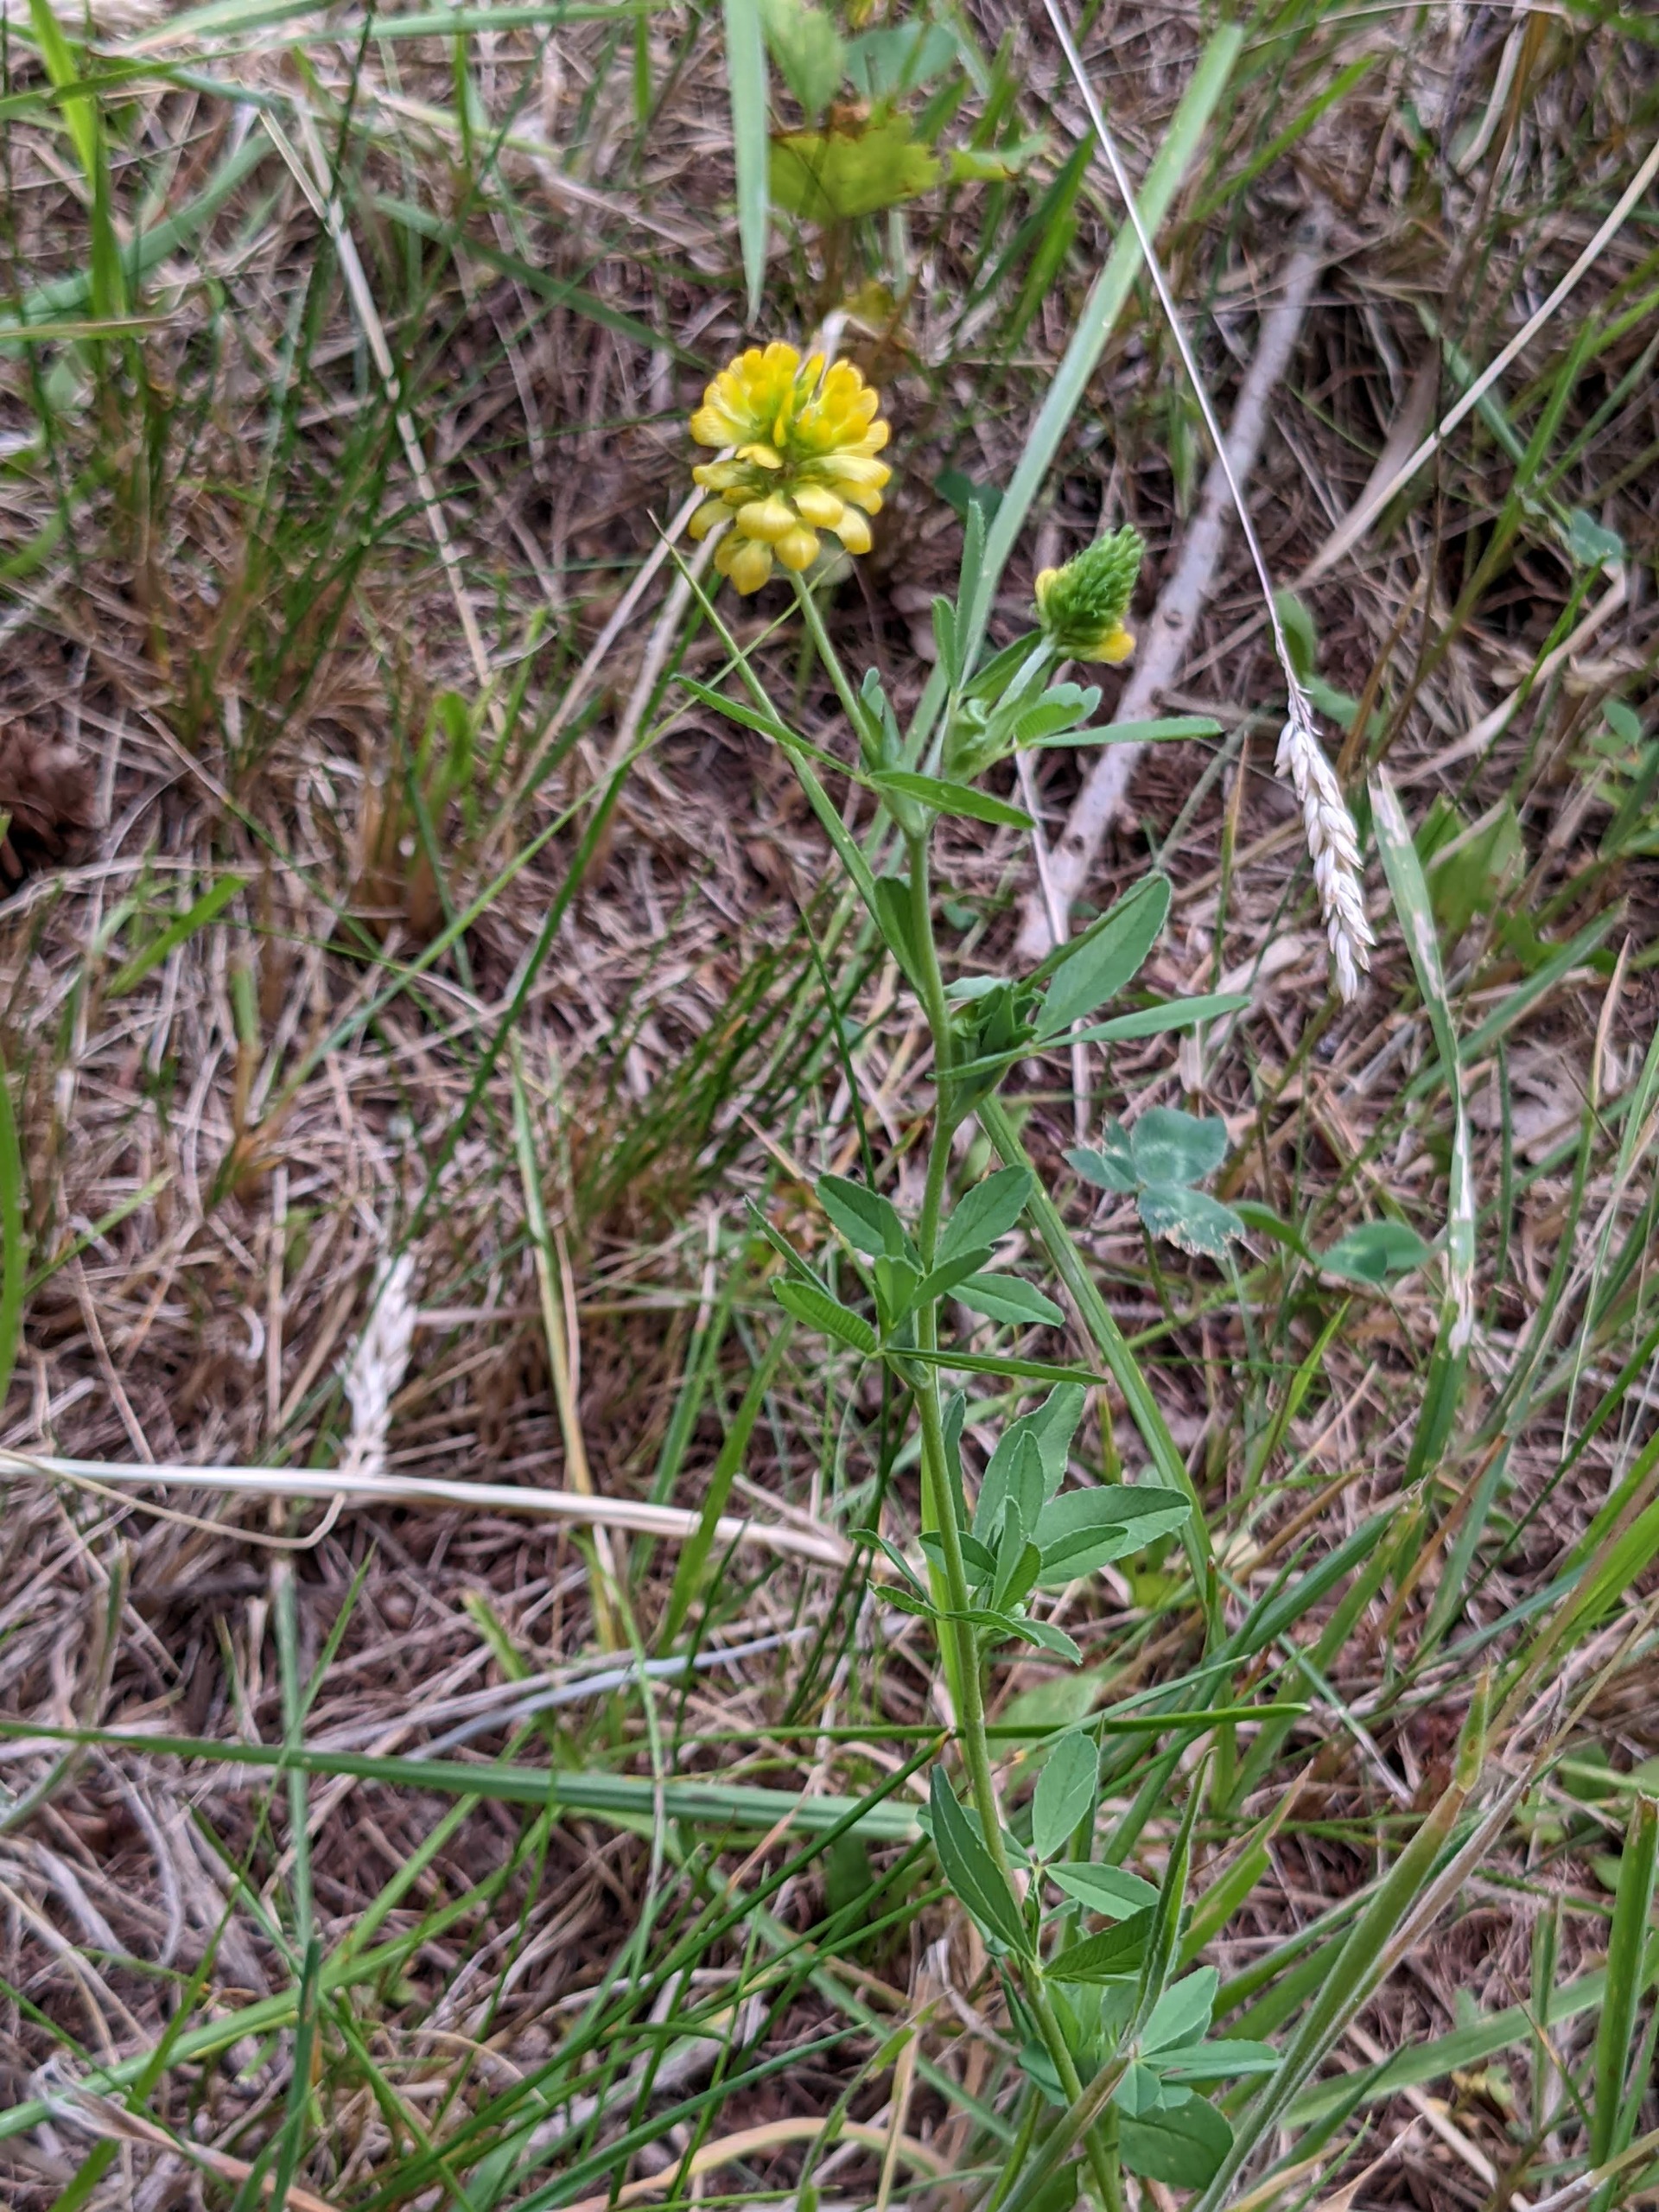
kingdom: Plantae
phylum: Tracheophyta
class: Magnoliopsida
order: Fabales
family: Fabaceae
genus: Trifolium
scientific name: Trifolium aureum
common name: Humle-kløver
